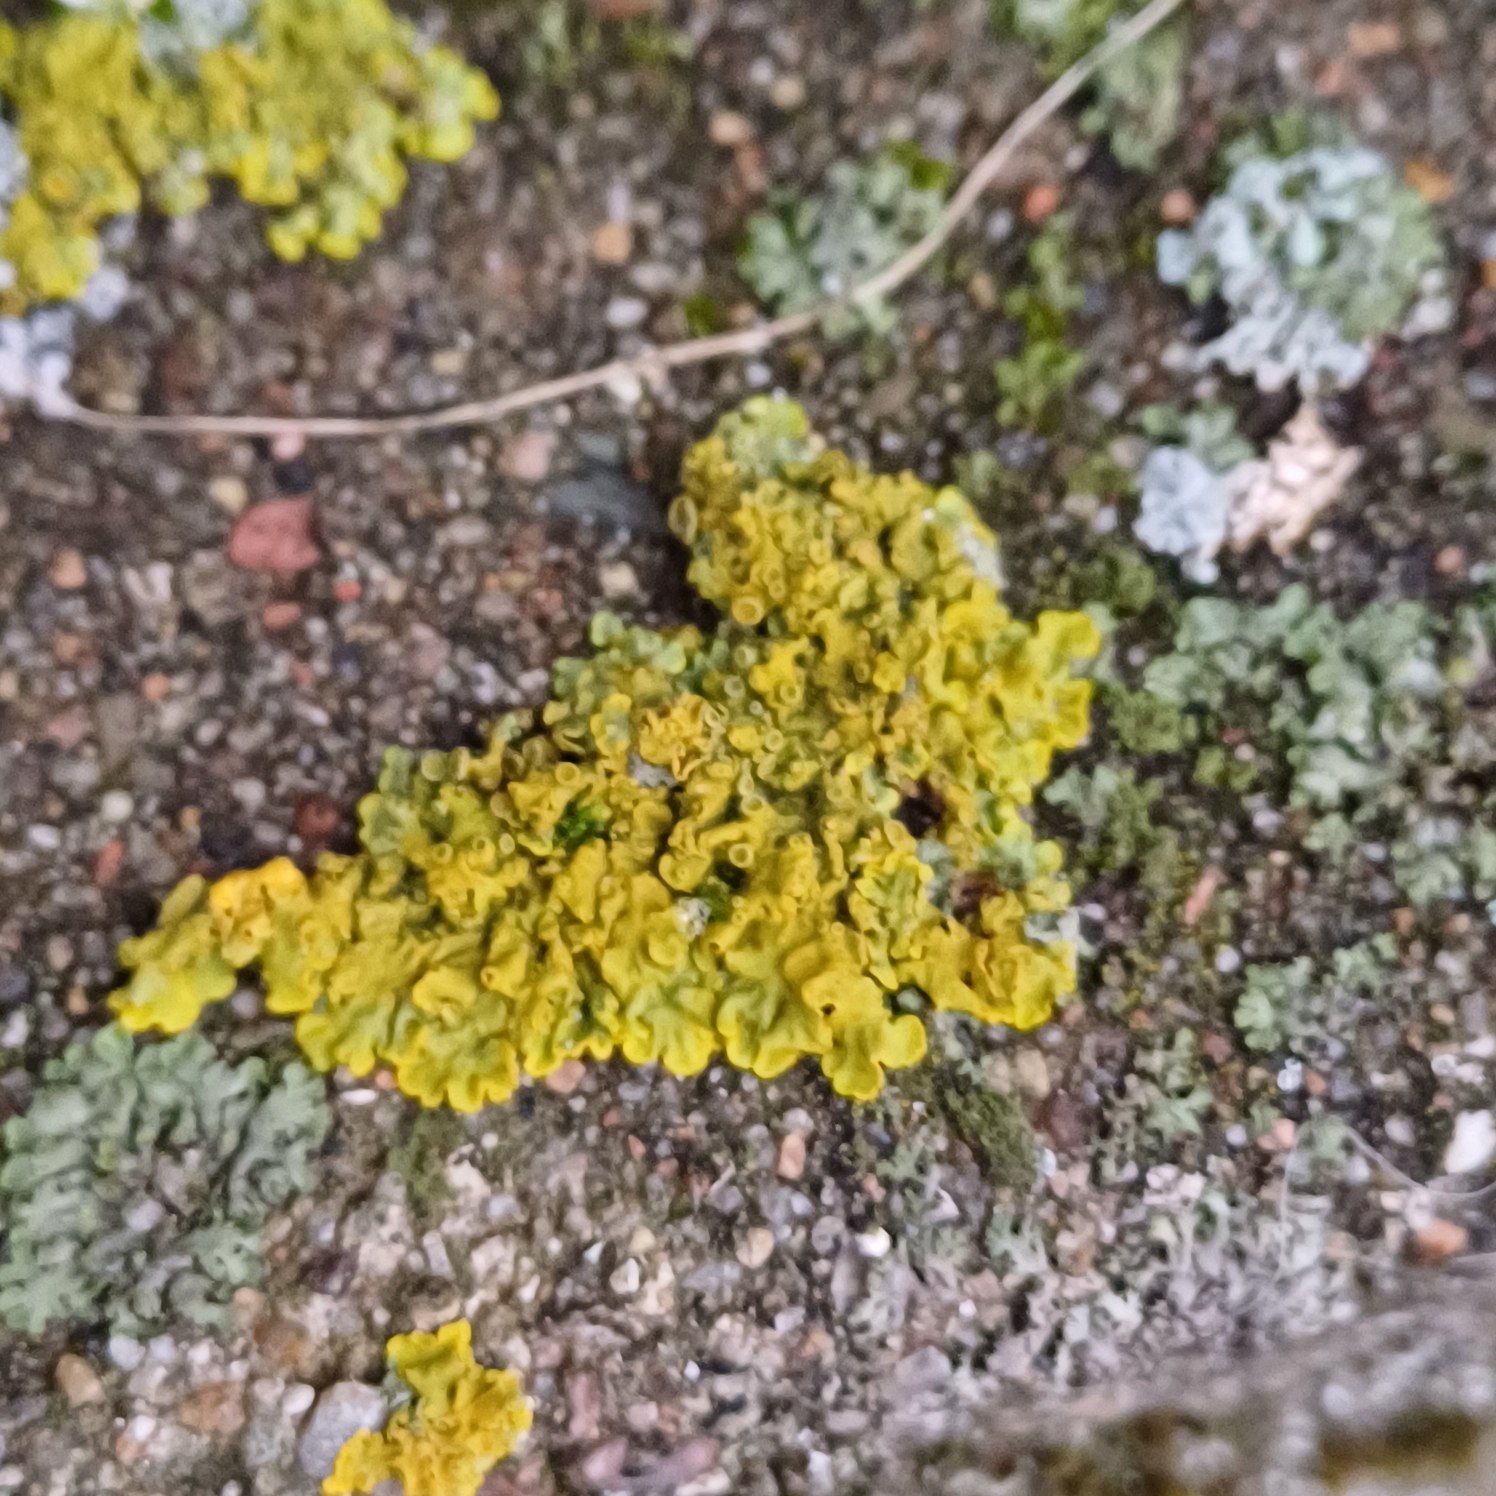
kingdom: Fungi
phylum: Ascomycota
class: Lecanoromycetes
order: Teloschistales
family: Teloschistaceae
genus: Xanthoria
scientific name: Xanthoria parietina
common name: Almindelig væggelav
